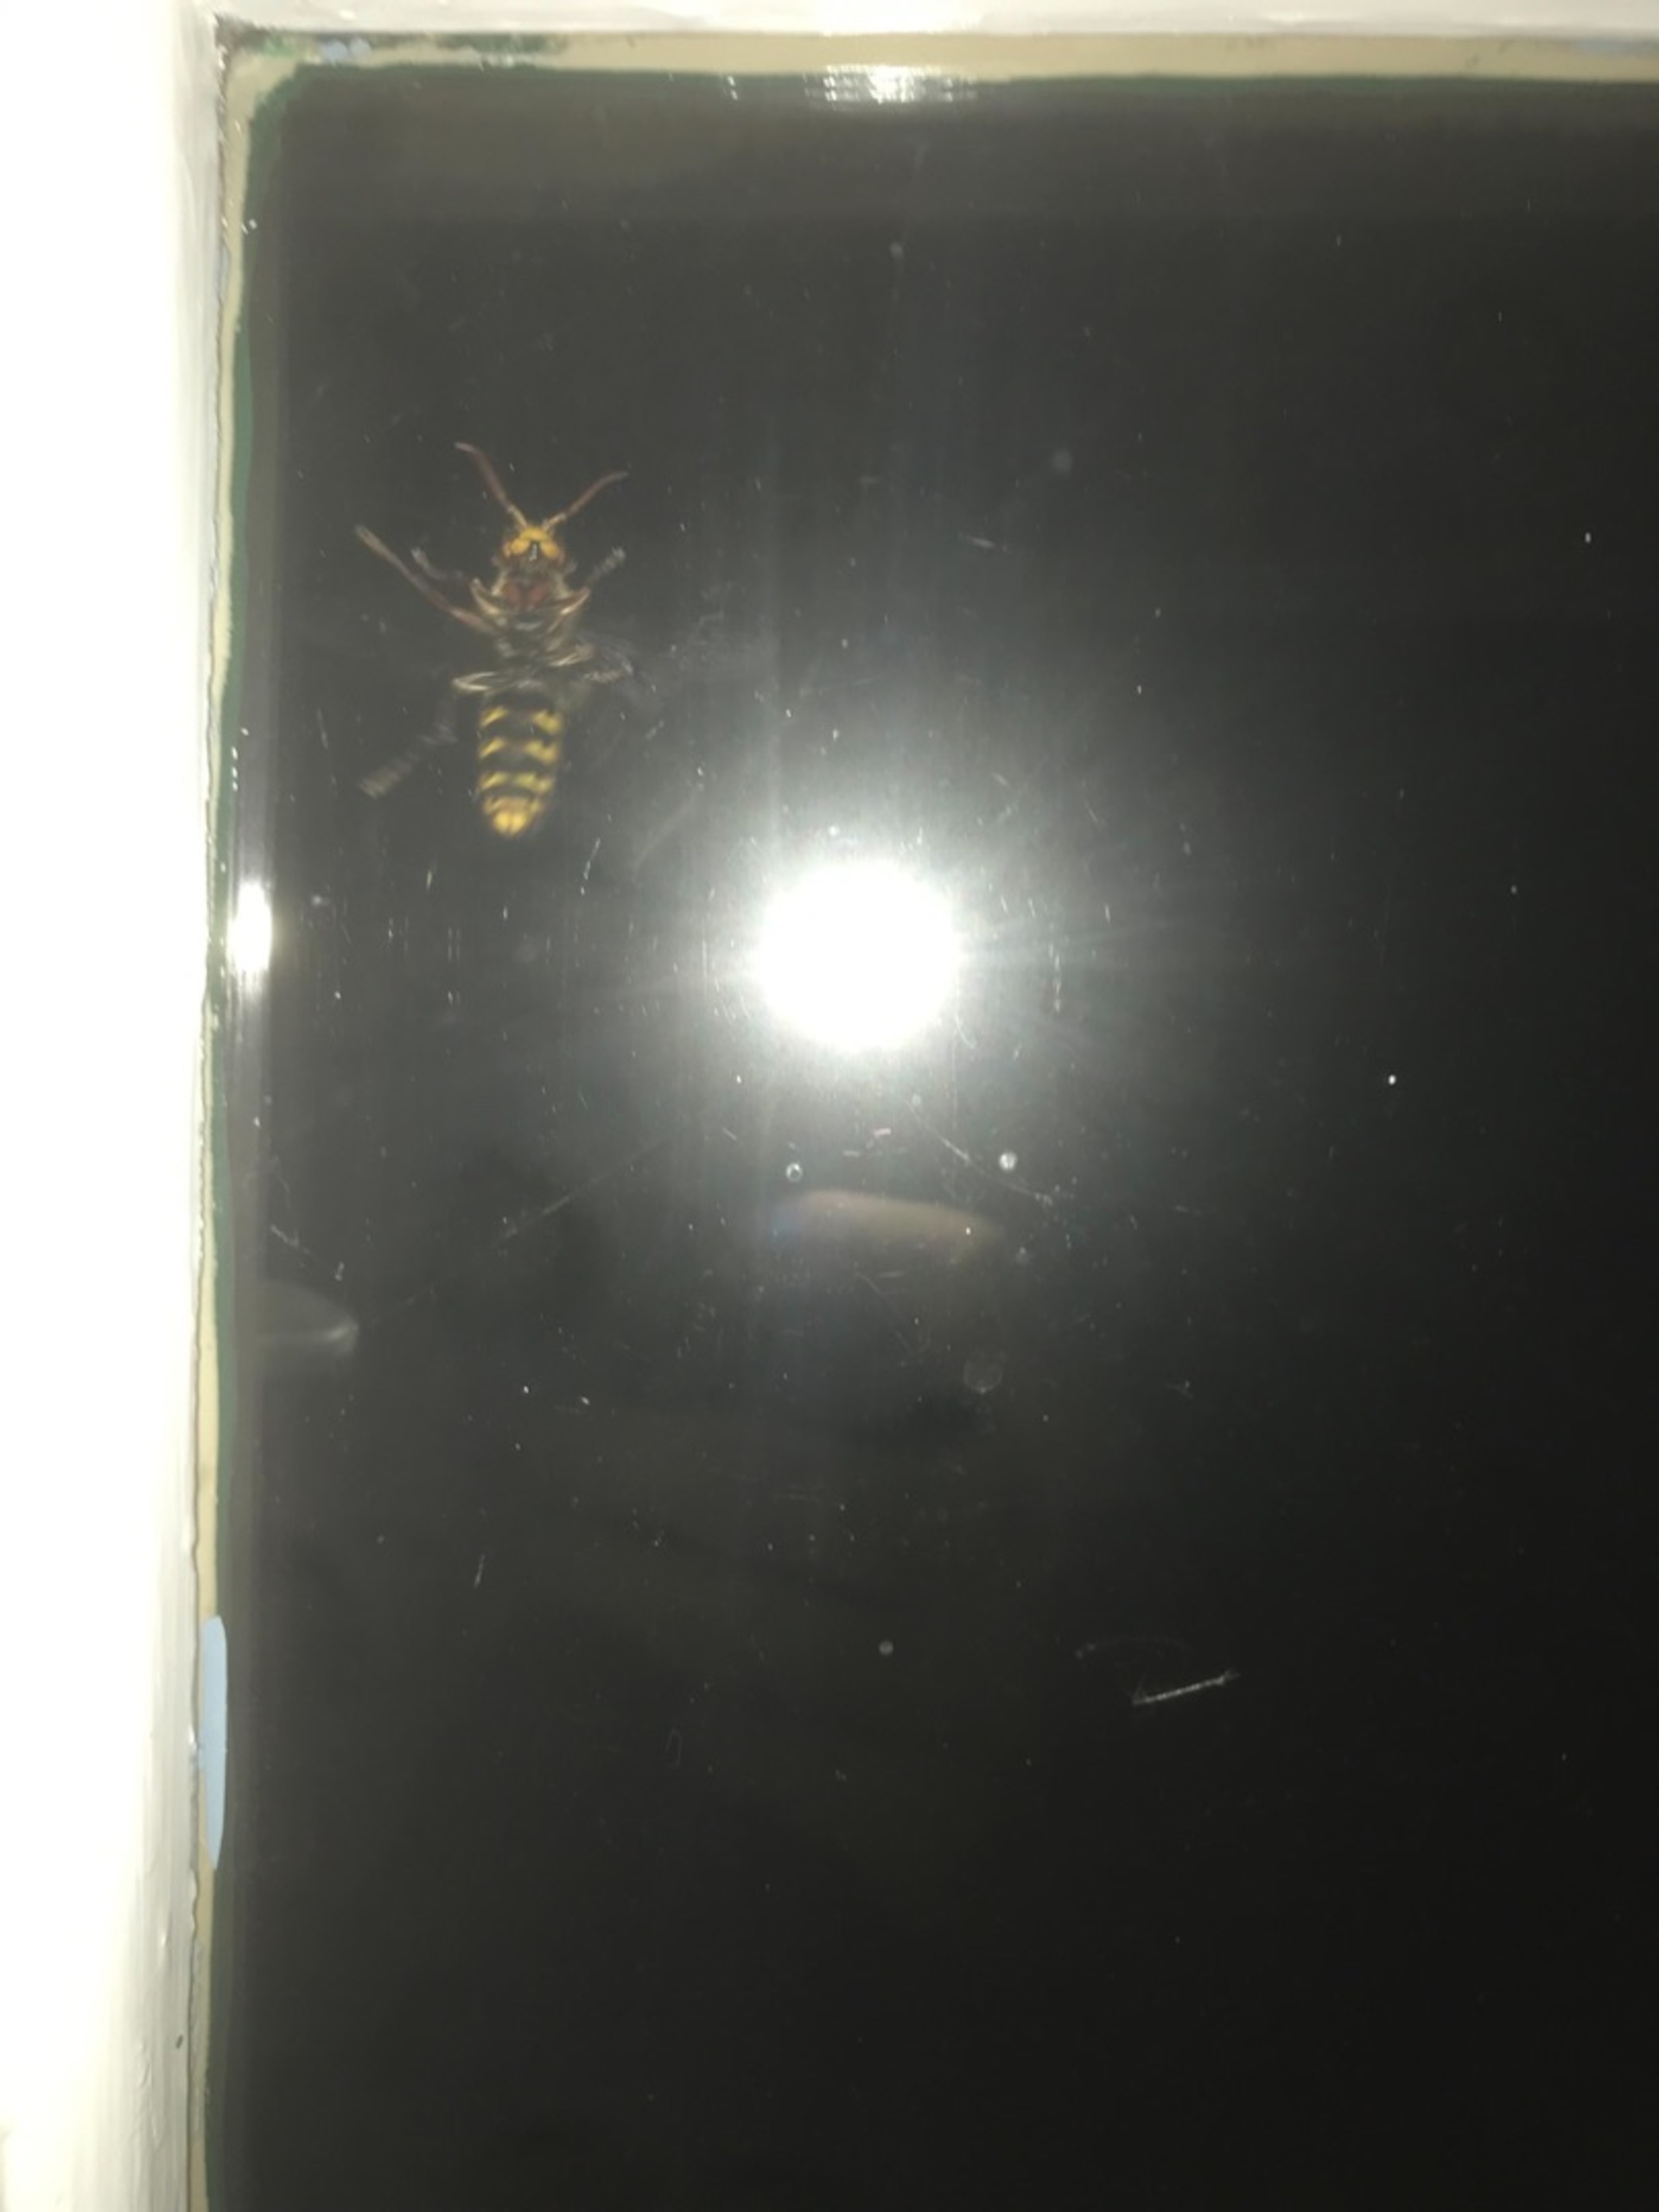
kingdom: Animalia
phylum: Arthropoda
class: Insecta
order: Hymenoptera
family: Vespidae
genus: Vespa
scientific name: Vespa crabro
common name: Stor gedehams
